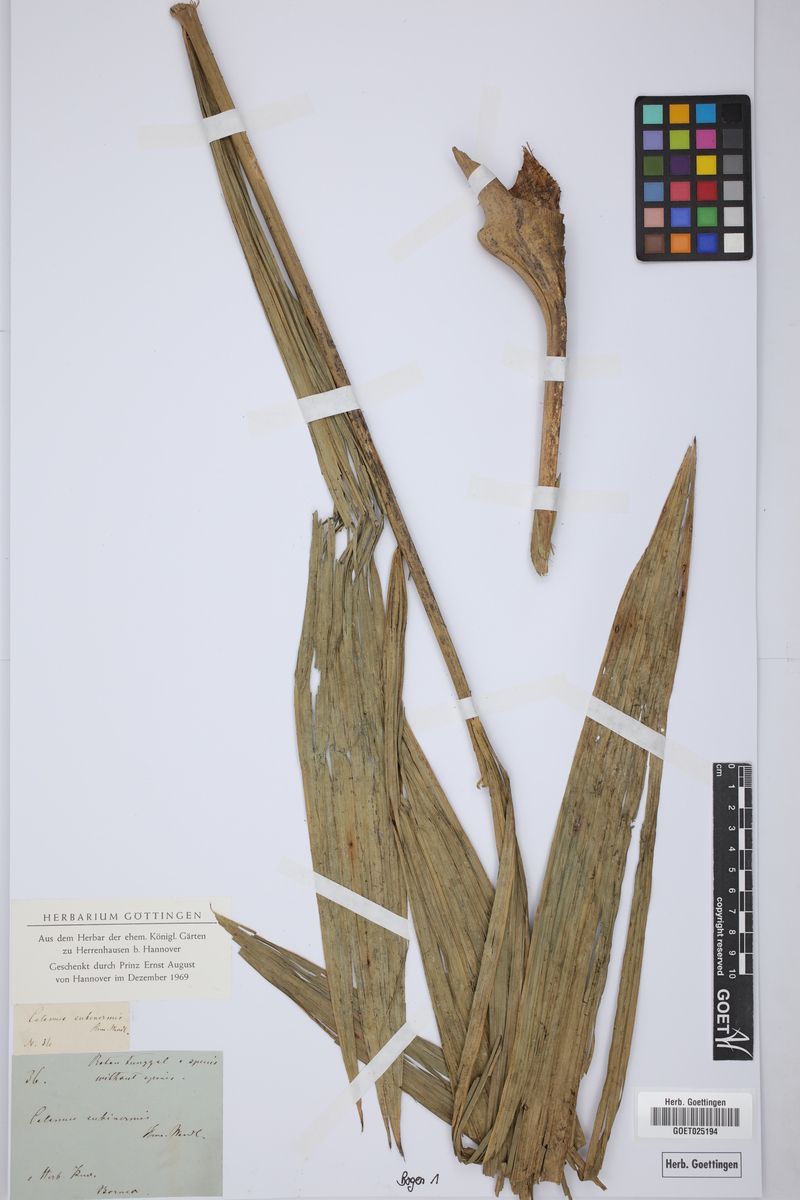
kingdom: Plantae
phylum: Tracheophyta
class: Liliopsida
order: Arecales
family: Arecaceae
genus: Calamus
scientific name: Calamus moseleyanus
